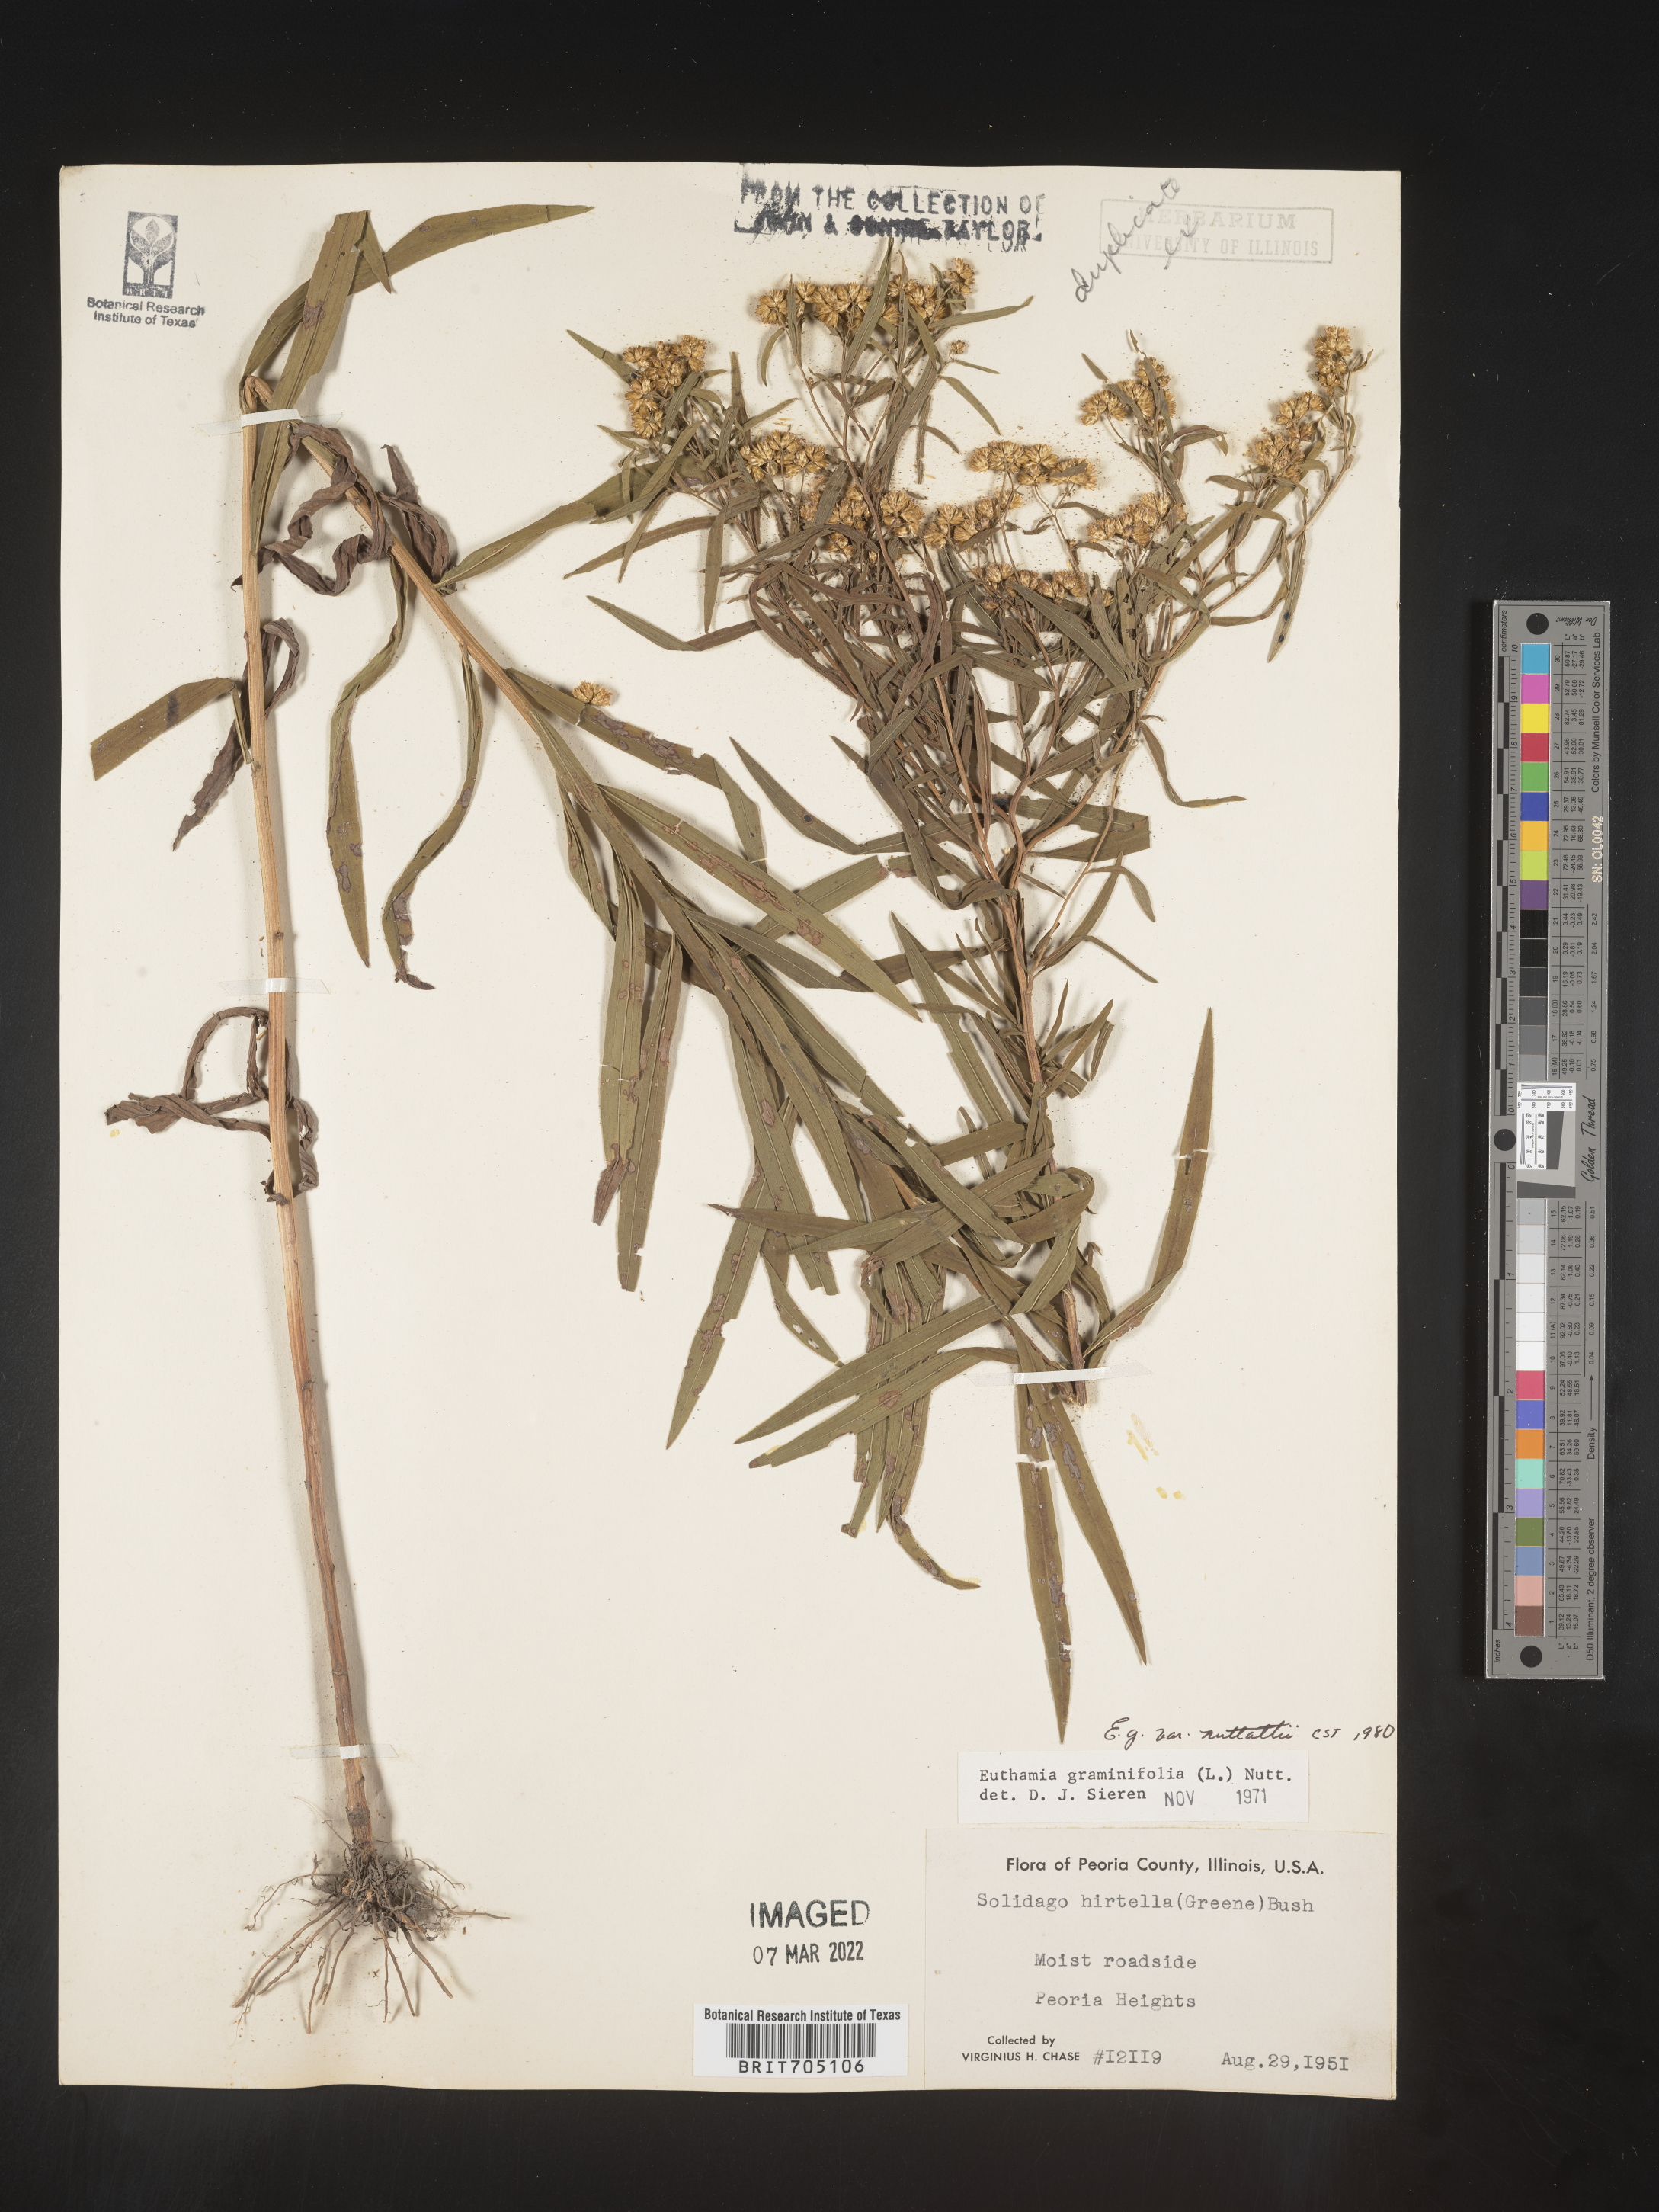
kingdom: Plantae
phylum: Tracheophyta
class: Magnoliopsida
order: Asterales
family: Asteraceae
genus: Euthamia
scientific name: Euthamia graminifolia
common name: Common goldentop
